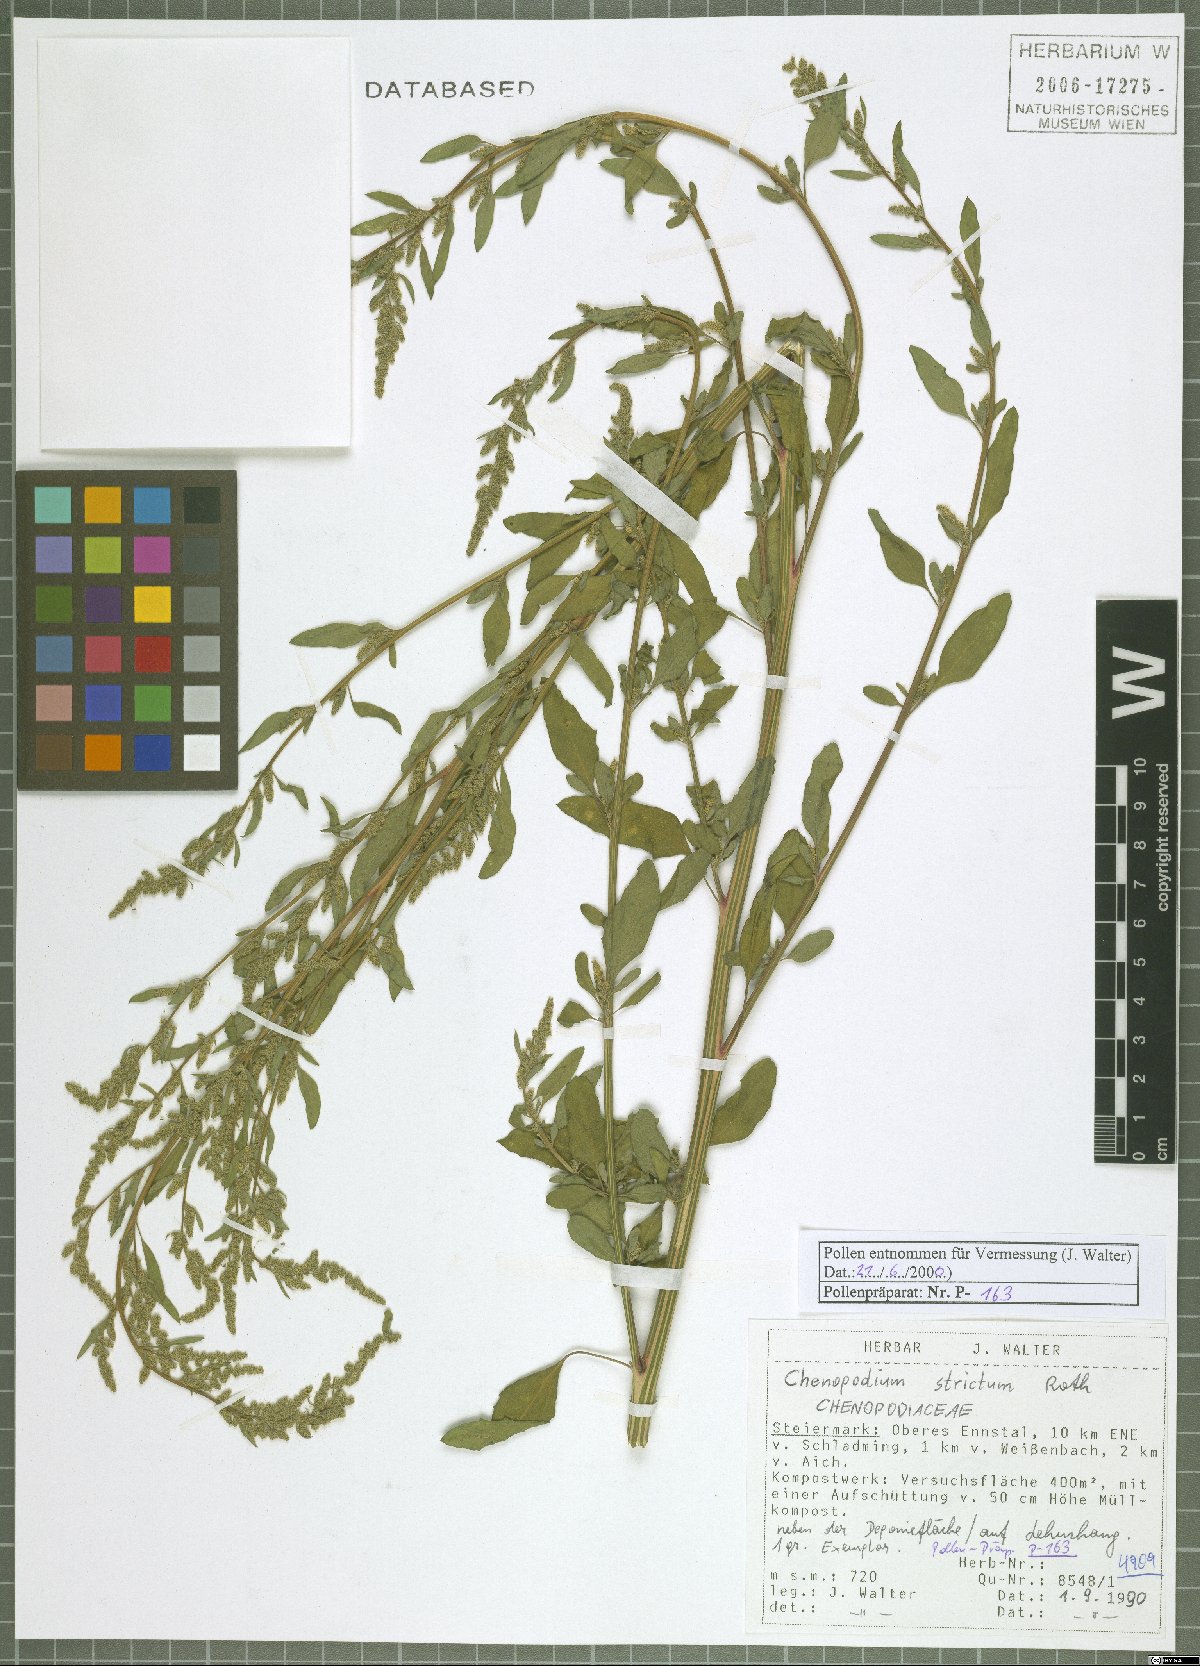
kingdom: Plantae
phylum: Tracheophyta
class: Magnoliopsida
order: Caryophyllales
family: Amaranthaceae
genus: Chenopodium
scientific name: Chenopodium album
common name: Fat-hen
